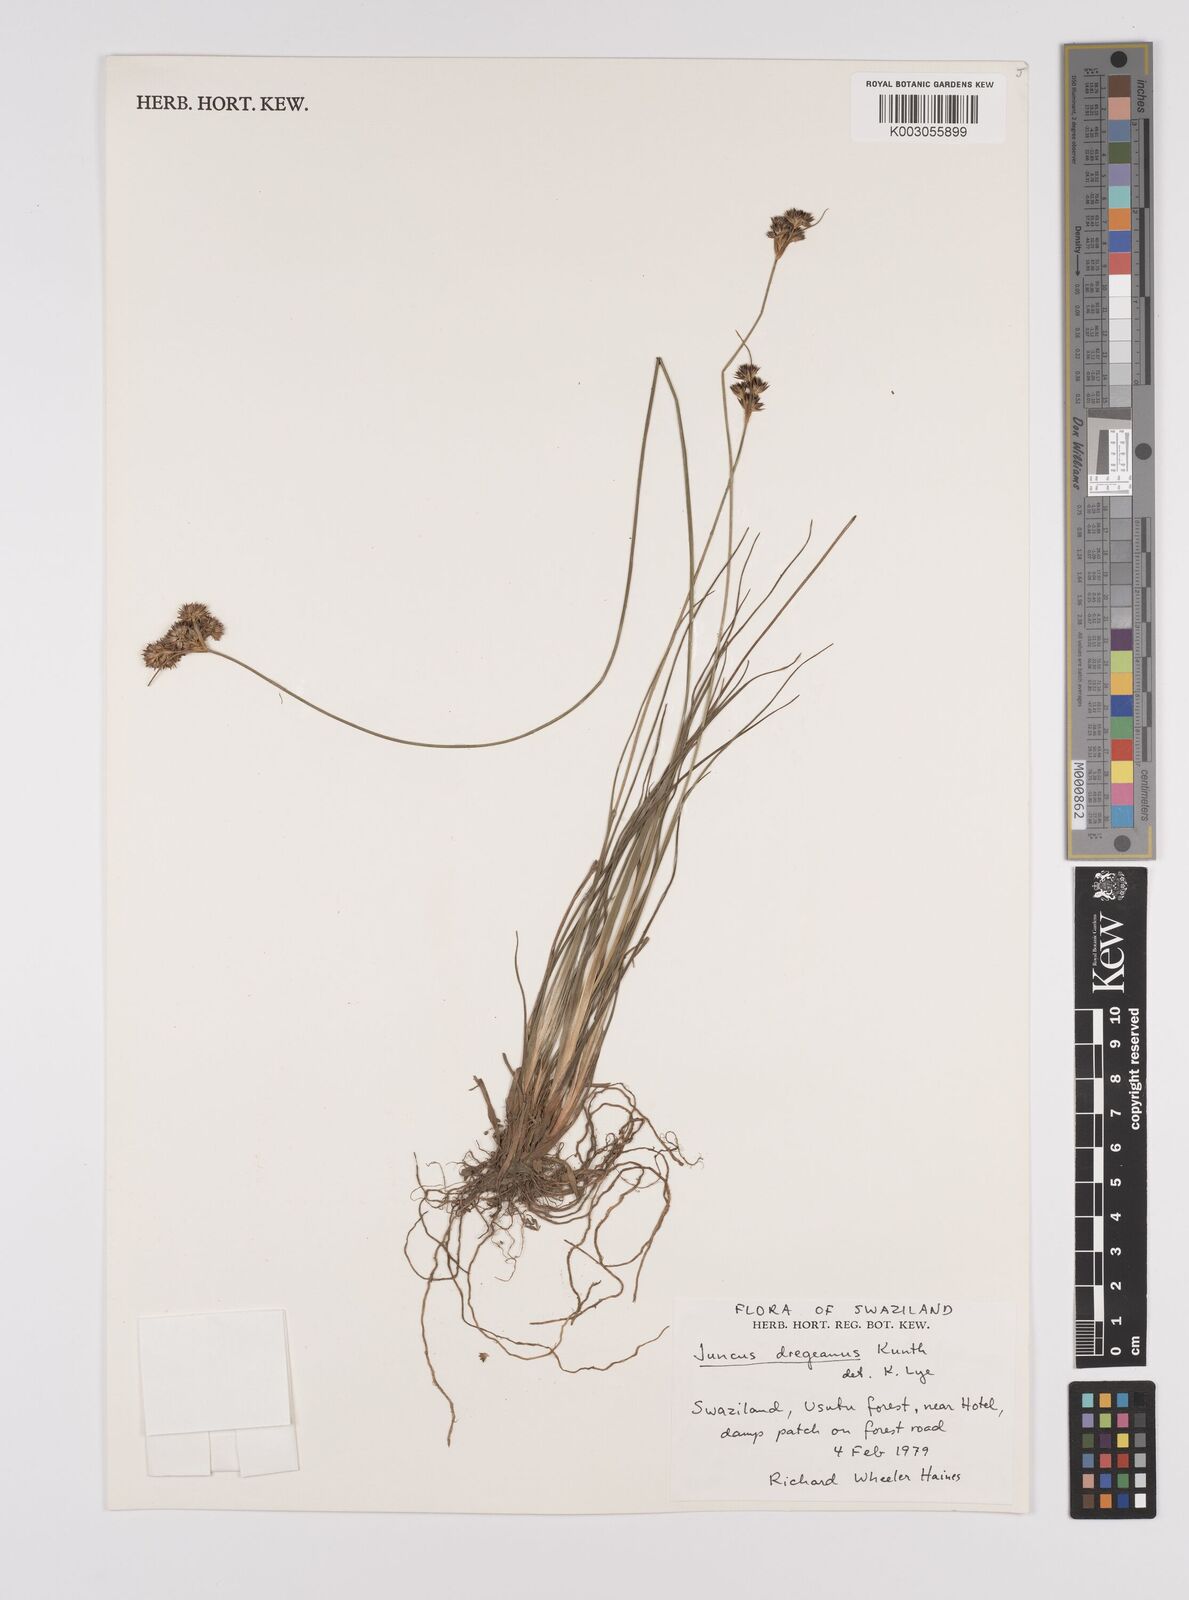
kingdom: Plantae
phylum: Tracheophyta
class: Liliopsida
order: Poales
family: Juncaceae
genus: Juncus
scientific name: Juncus dregeanus
